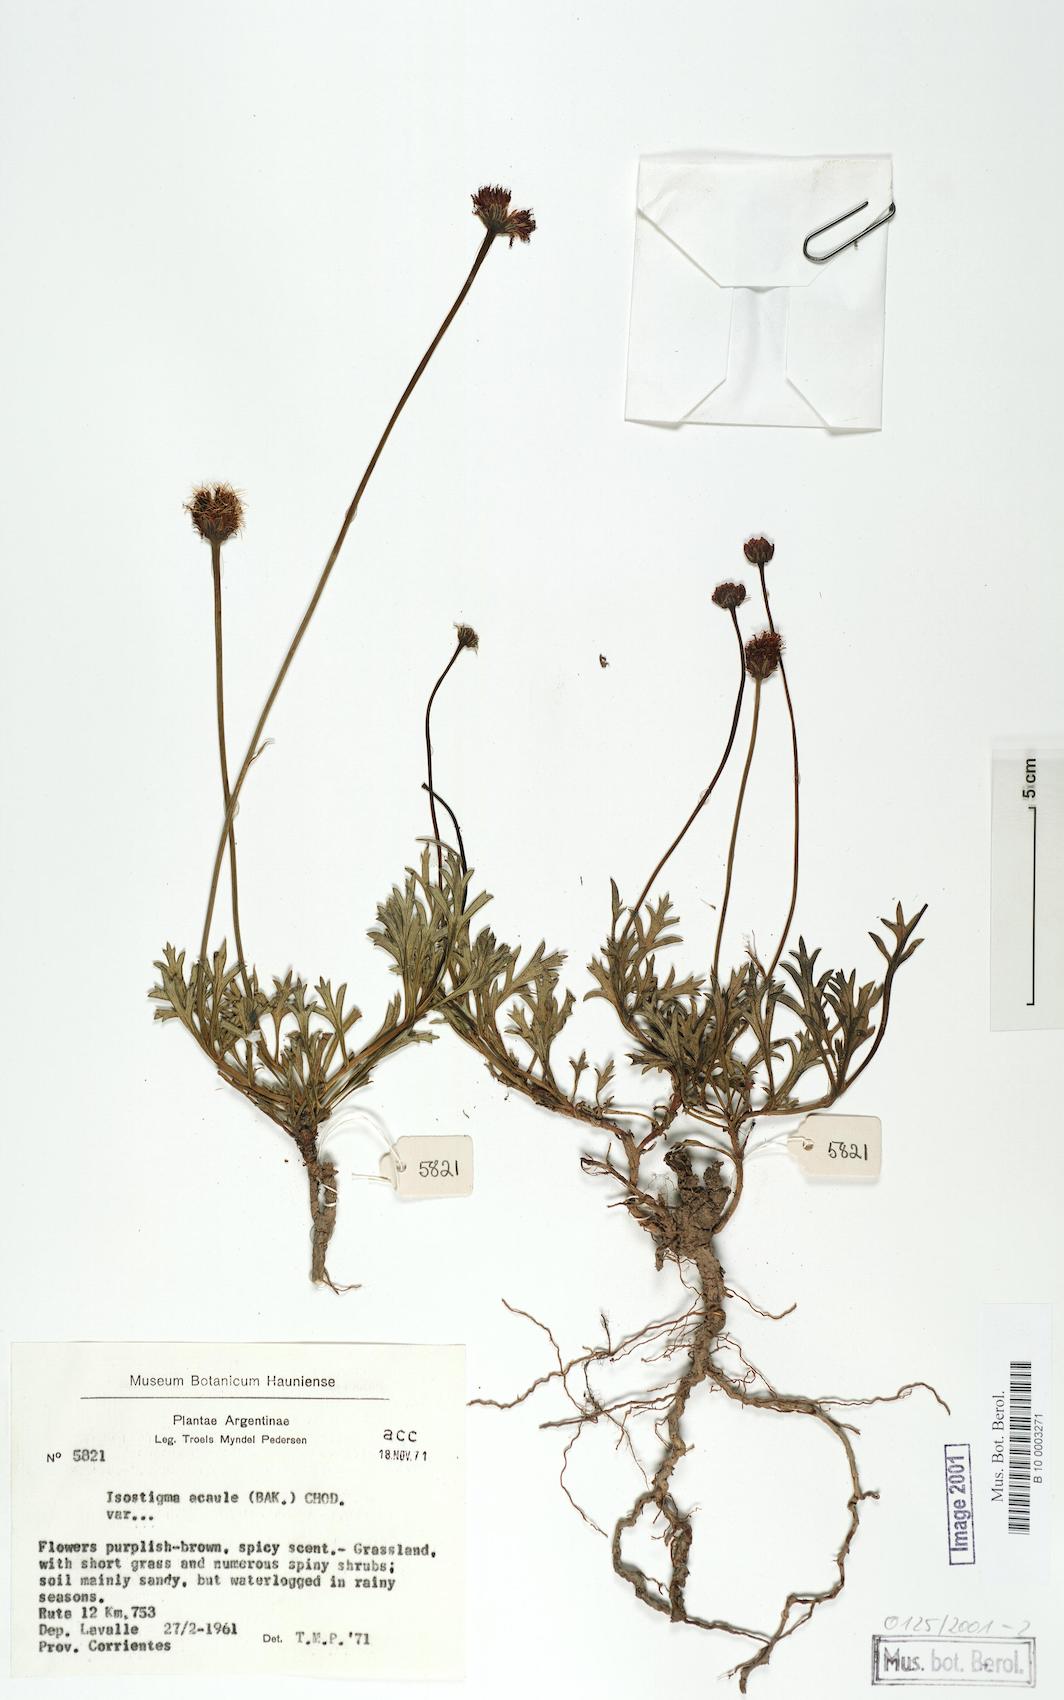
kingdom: Plantae
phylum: Tracheophyta
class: Magnoliopsida
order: Asterales
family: Asteraceae
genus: Isostigma
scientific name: Isostigma acaule
